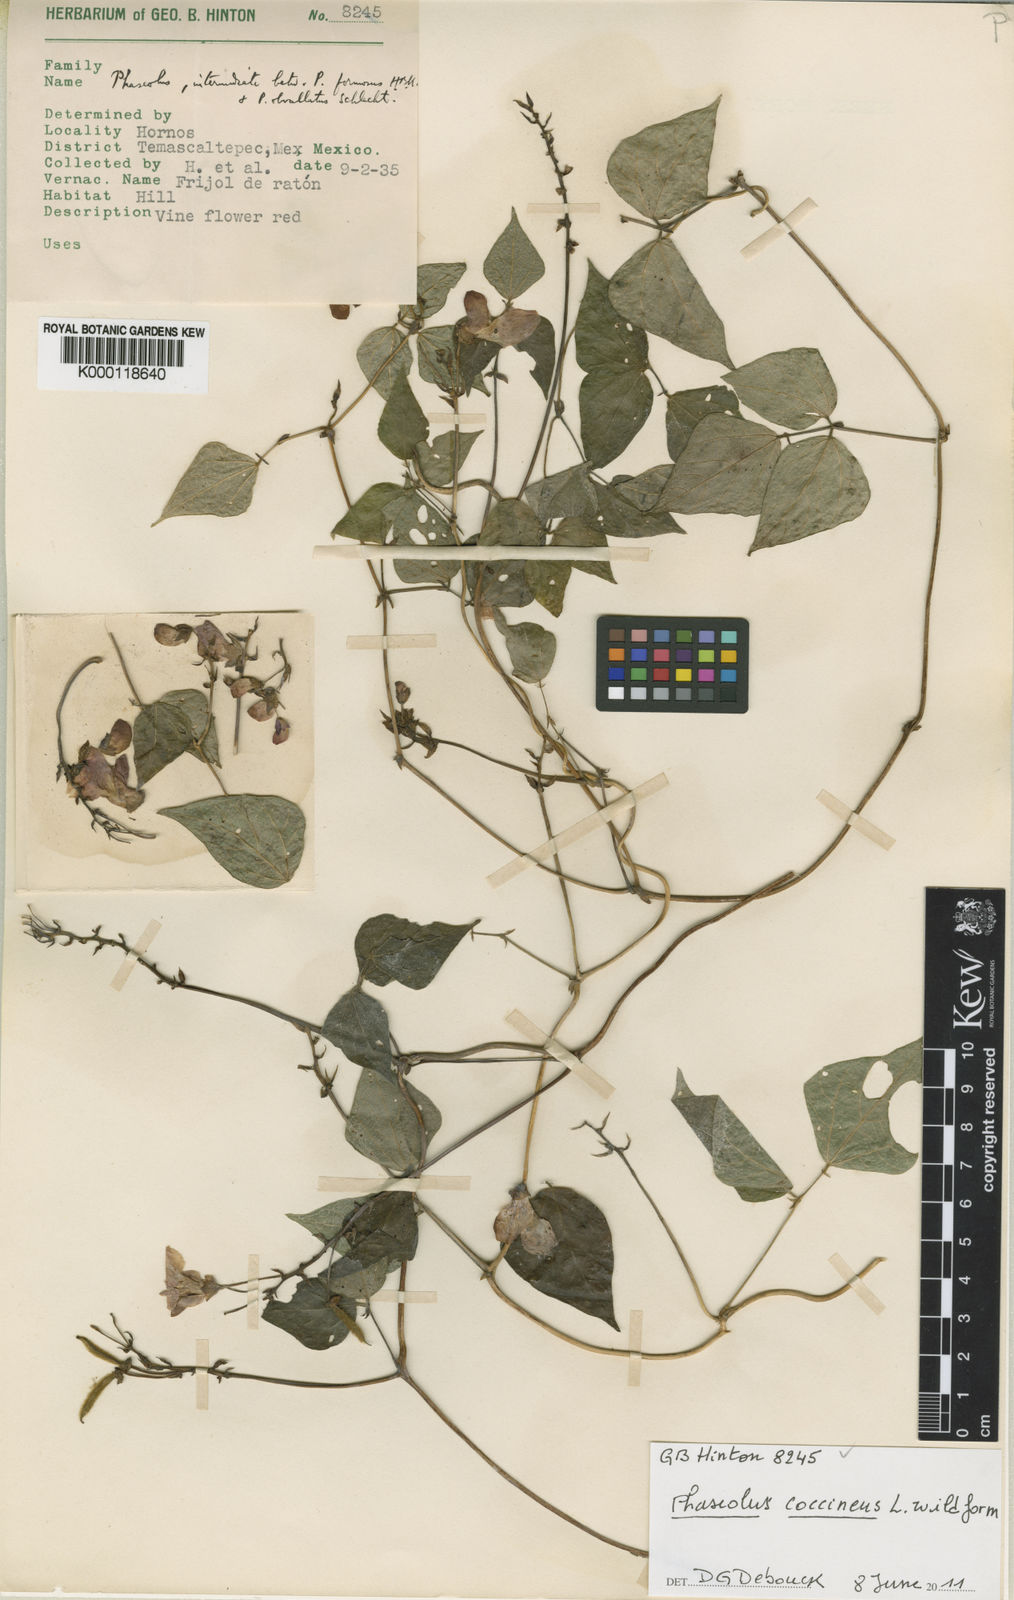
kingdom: Plantae
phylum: Tracheophyta
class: Magnoliopsida
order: Fabales
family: Fabaceae
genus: Phaseolus
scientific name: Phaseolus coccineus
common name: Runner bean
